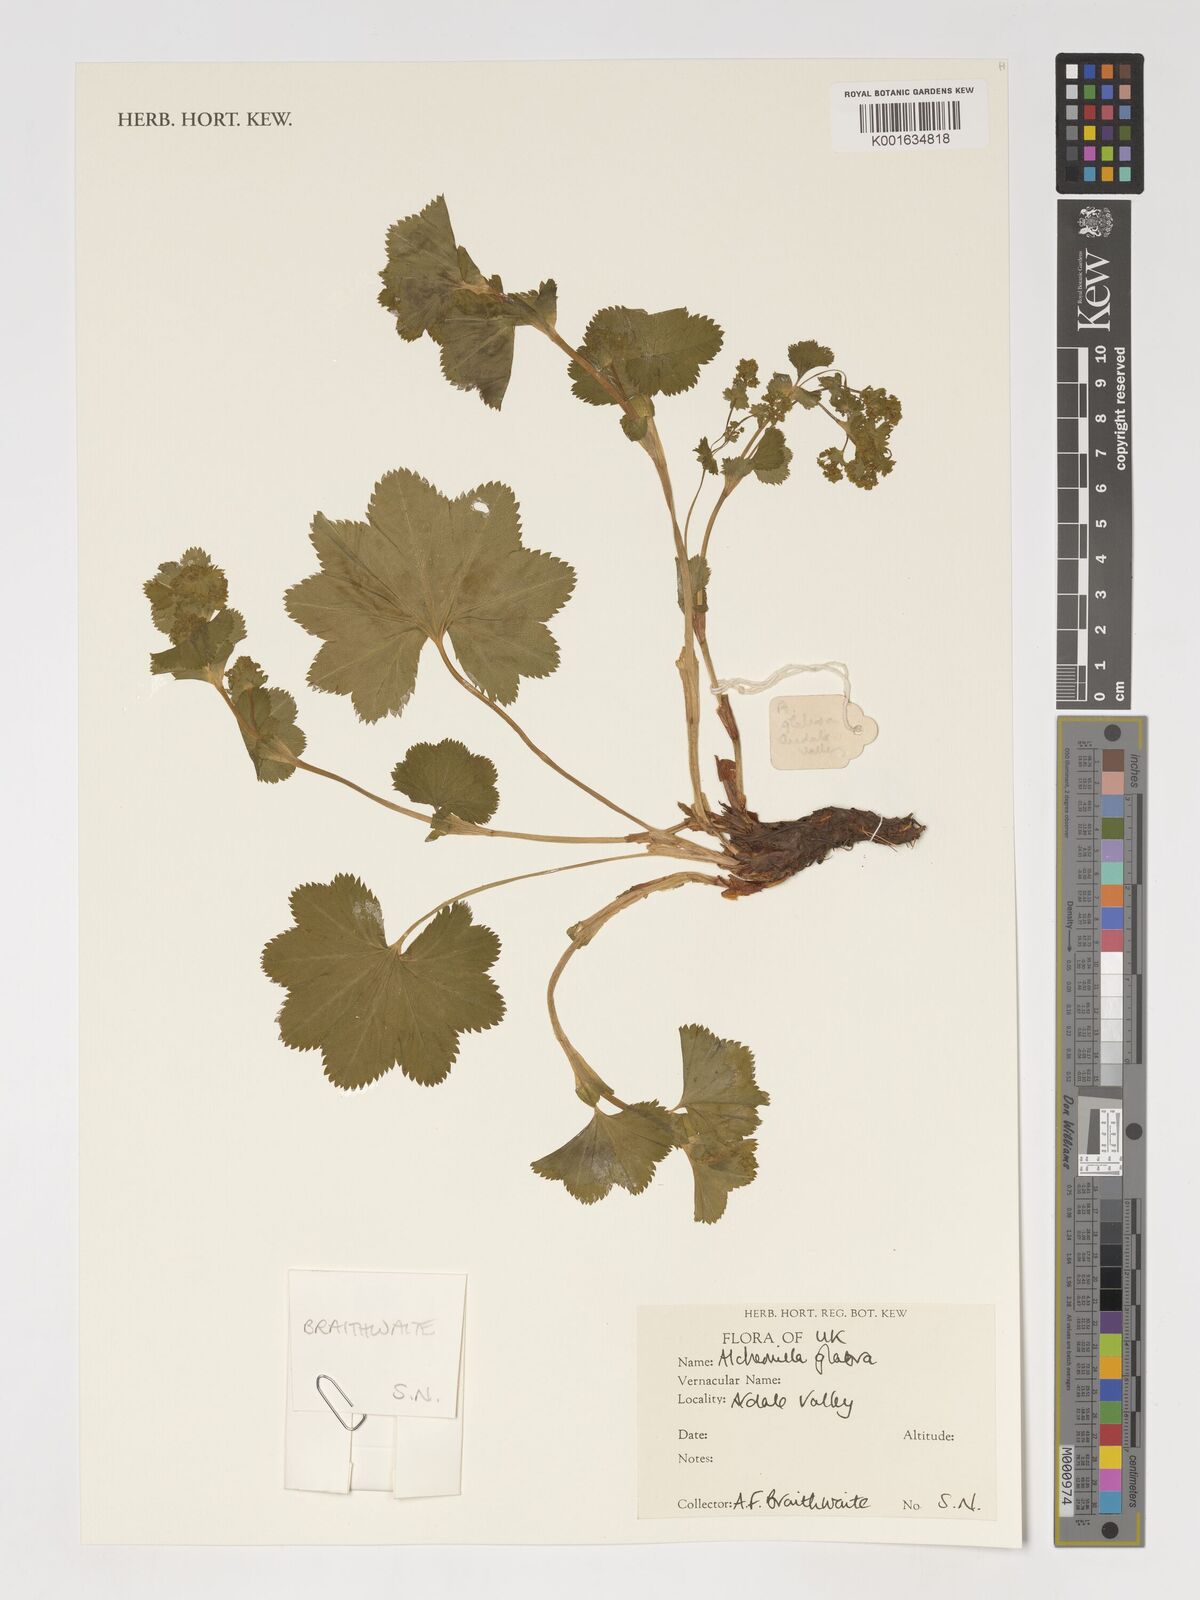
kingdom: Plantae
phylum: Tracheophyta
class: Magnoliopsida
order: Rosales
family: Rosaceae
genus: Alchemilla
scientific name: Alchemilla glabra
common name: Smooth lady's-mantle
